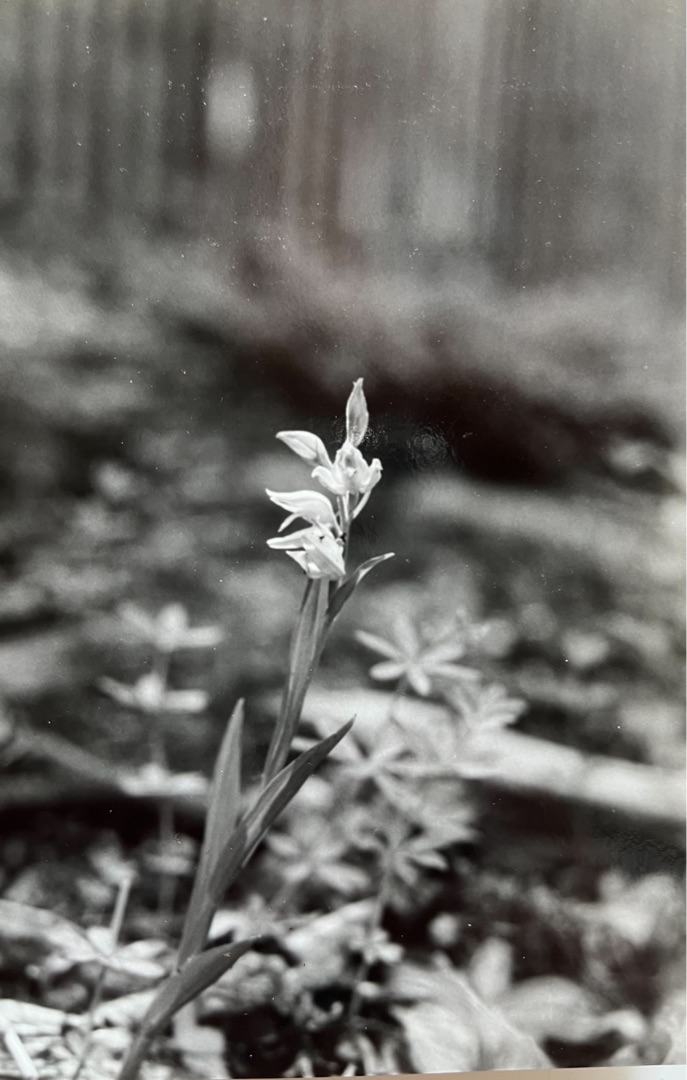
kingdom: Plantae
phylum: Tracheophyta
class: Liliopsida
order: Asparagales
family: Orchidaceae
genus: Cephalanthera
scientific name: Cephalanthera longifolia
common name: Sværd-skovlilje
